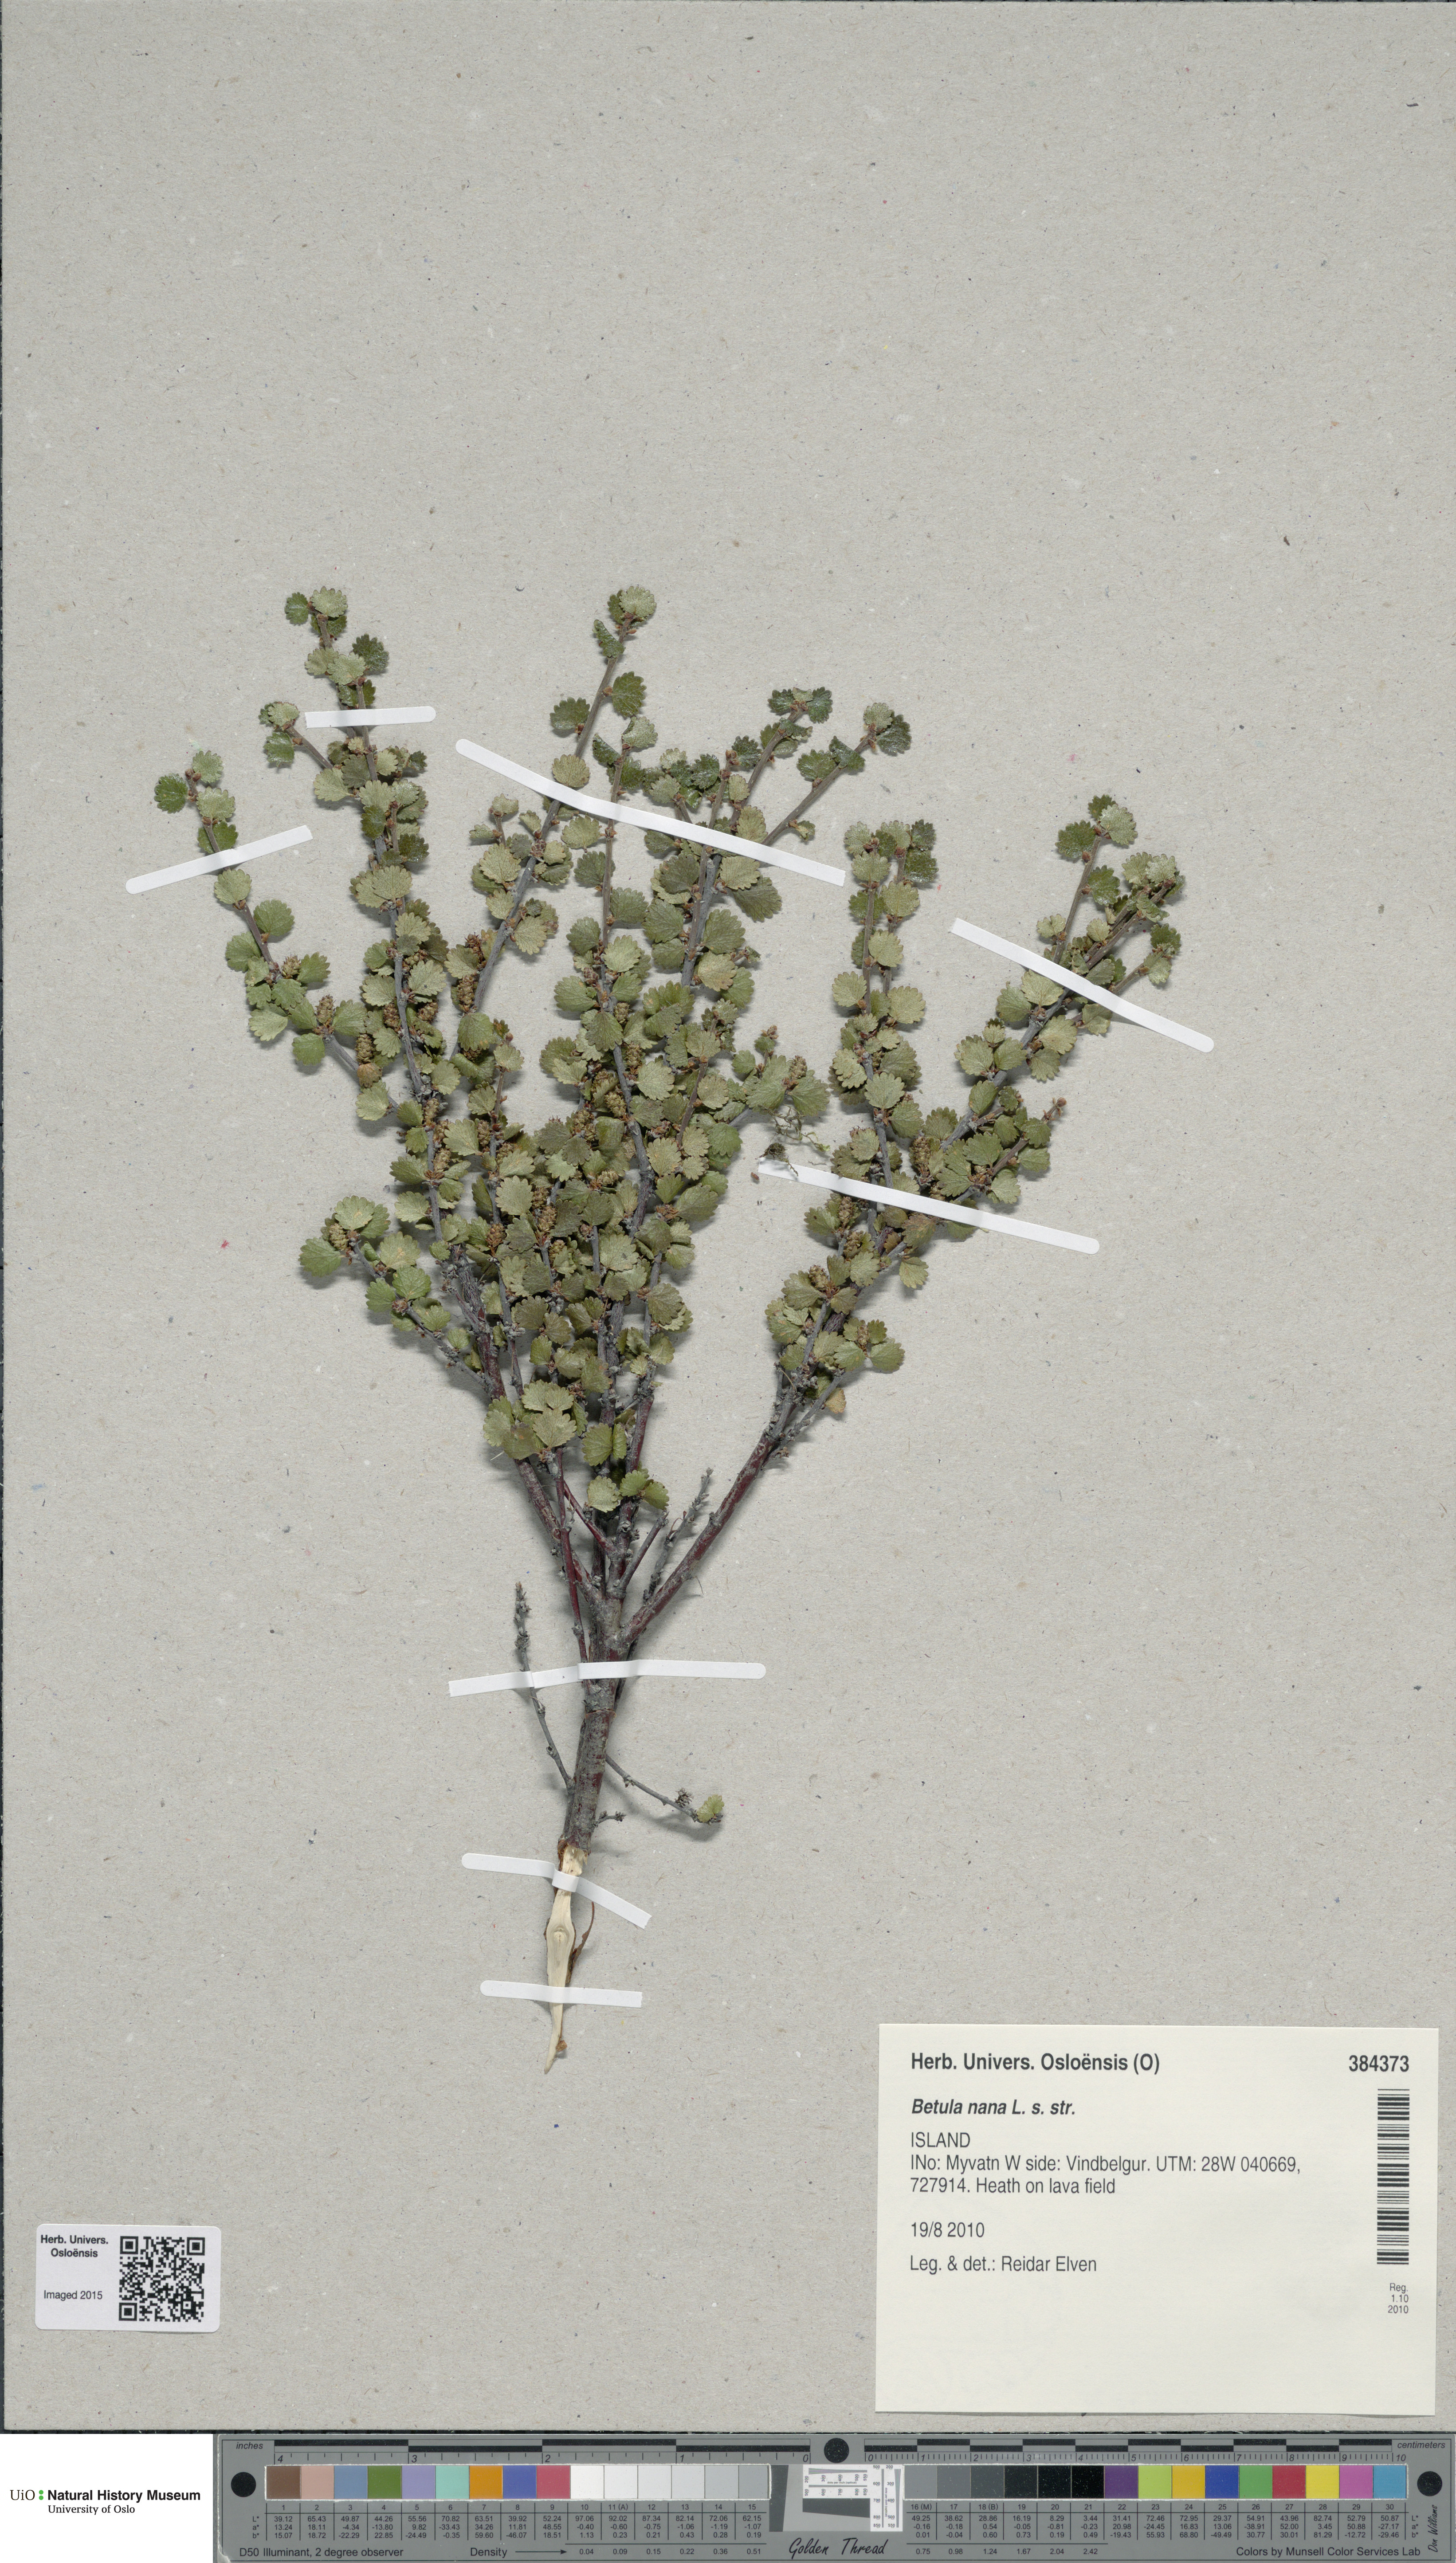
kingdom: Plantae
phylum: Tracheophyta
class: Magnoliopsida
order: Fagales
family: Betulaceae
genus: Betula
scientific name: Betula nana
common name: Arctic dwarf birch
